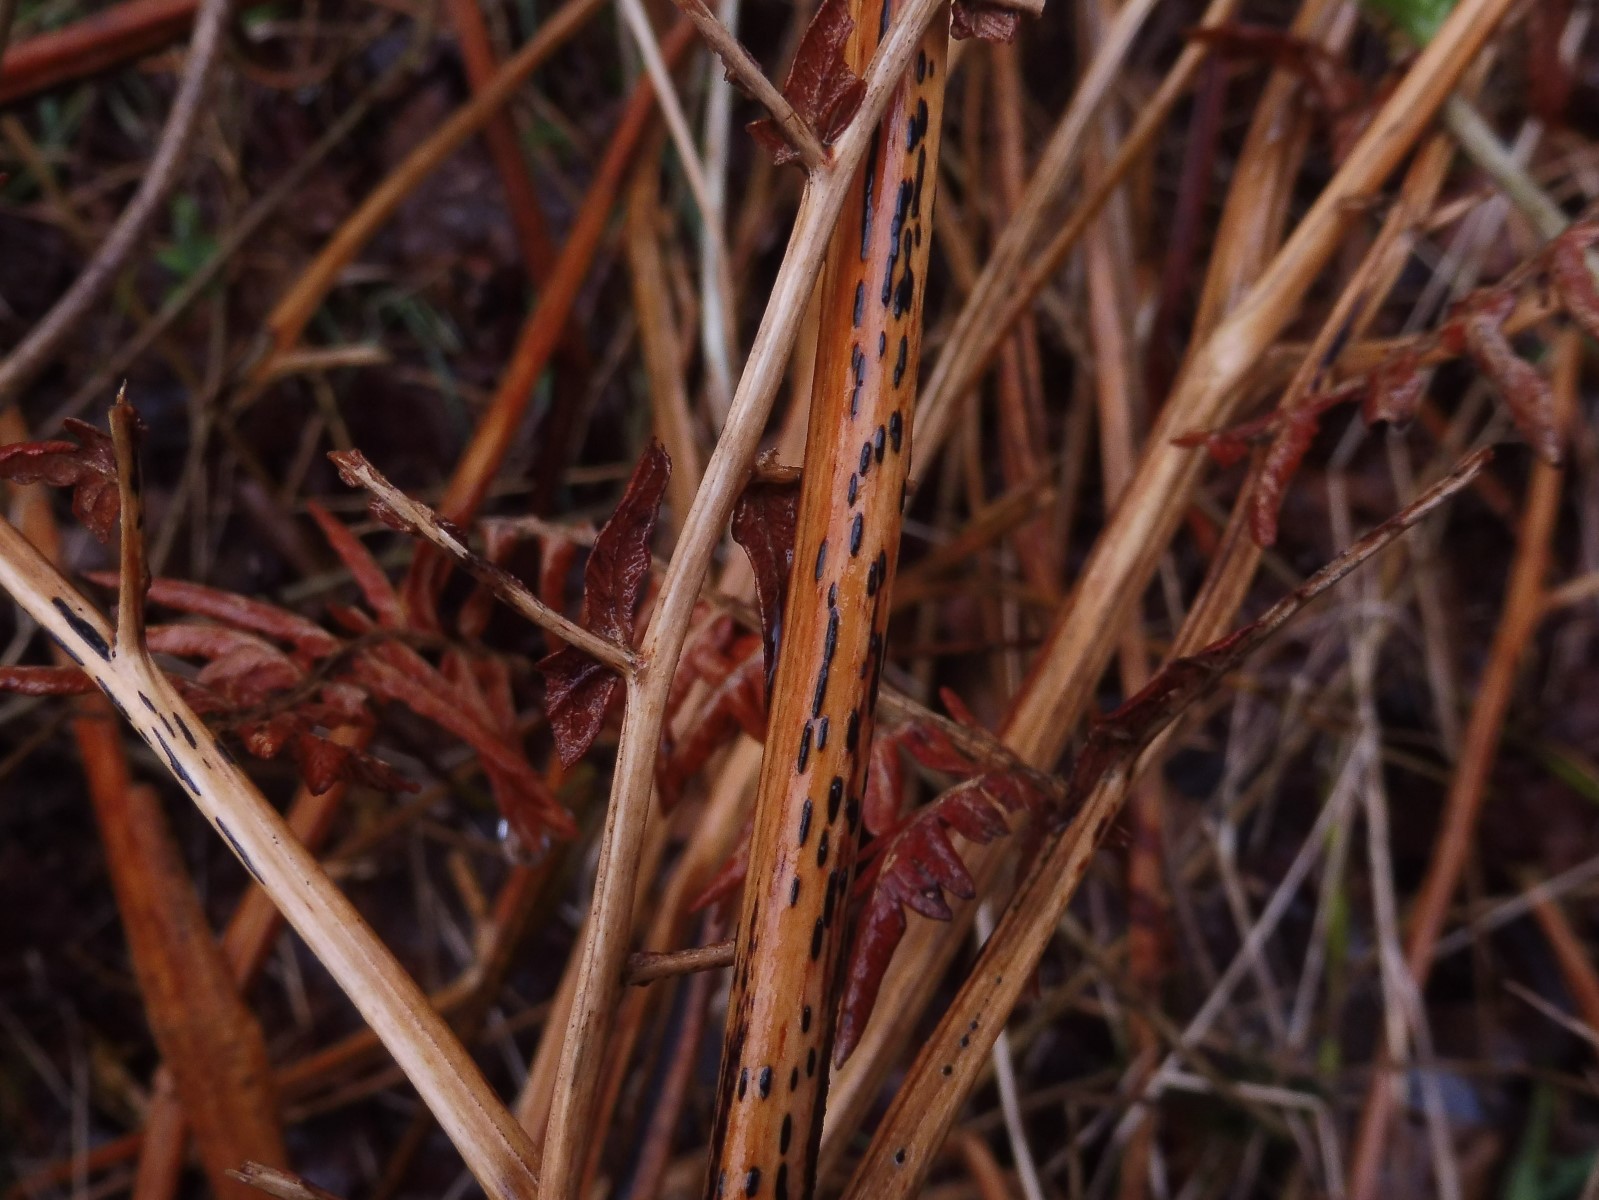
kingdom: Fungi
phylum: Ascomycota
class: Dothideomycetes
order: Pleosporales
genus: Rhopographus
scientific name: Rhopographus filicinus
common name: Bracken map
